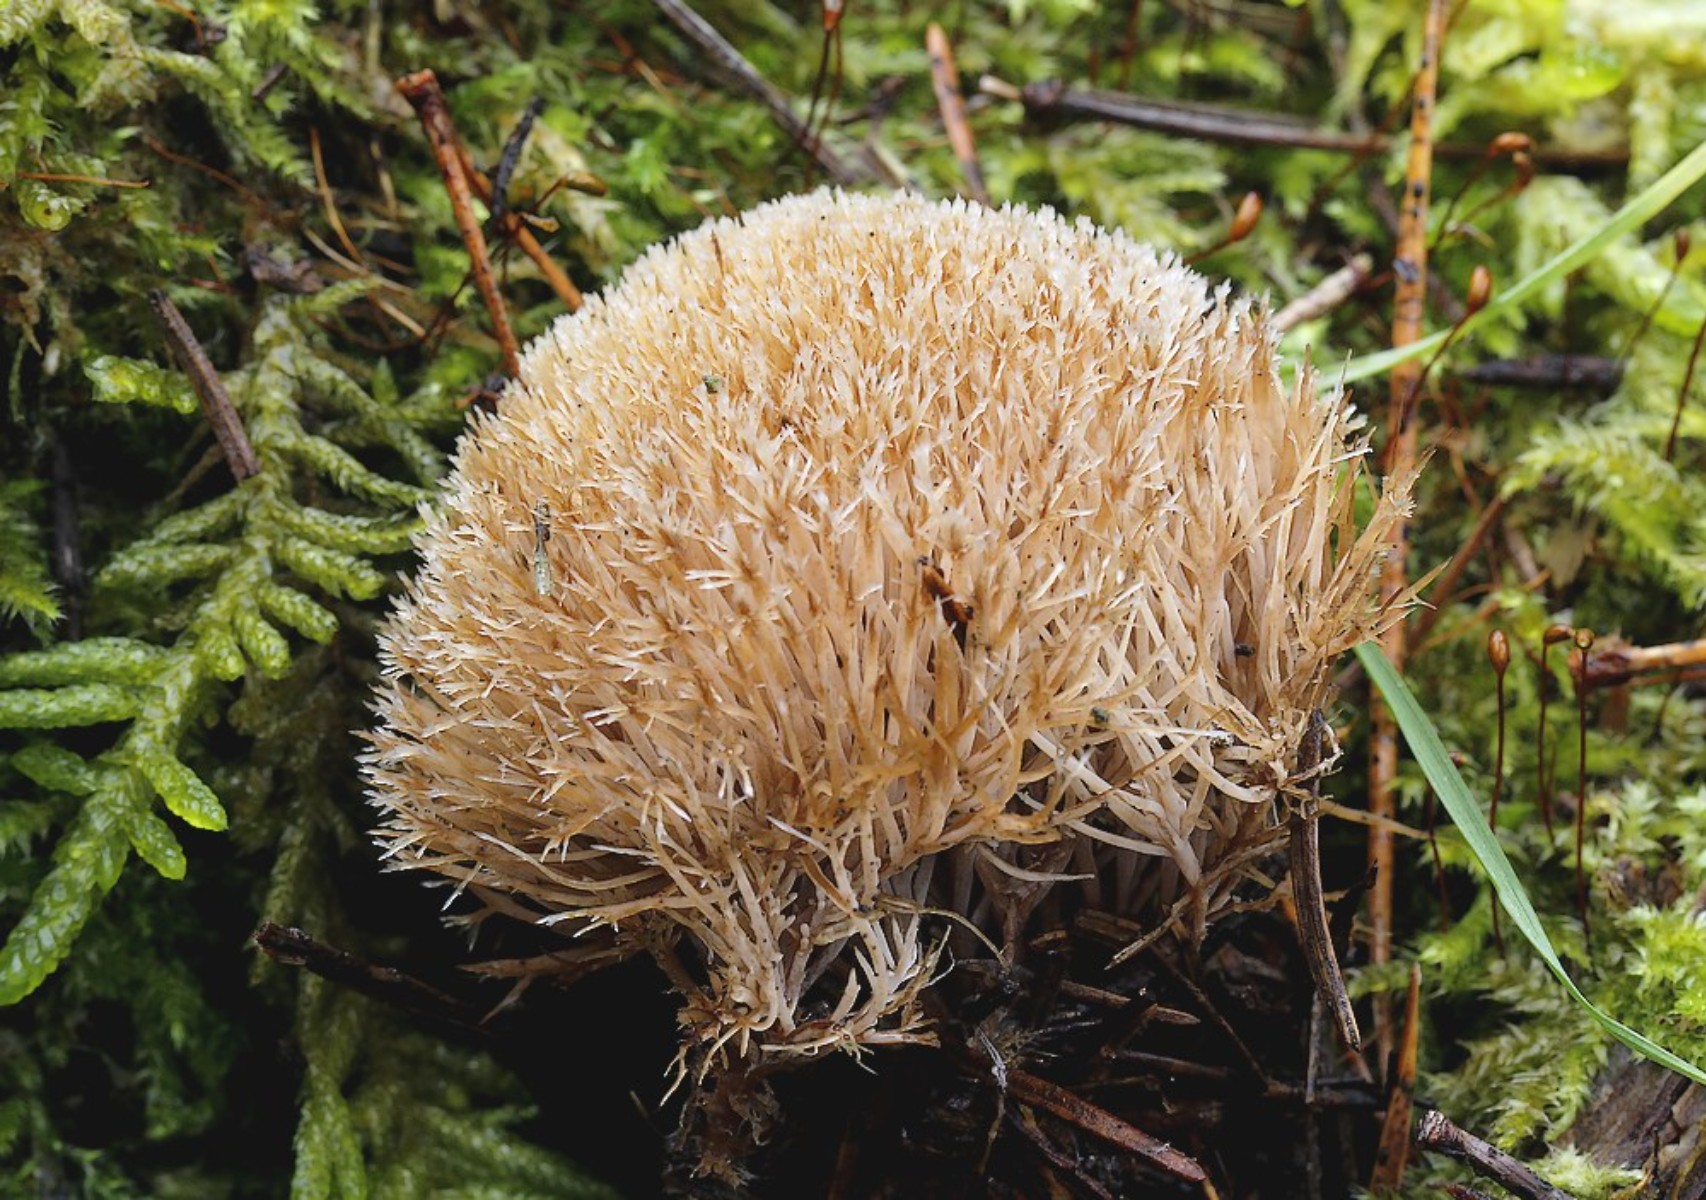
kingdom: Fungi
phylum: Basidiomycota
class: Agaricomycetes
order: Agaricales
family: Pterulaceae
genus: Pterula
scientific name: Pterula multifida
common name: busket fjerkølle
